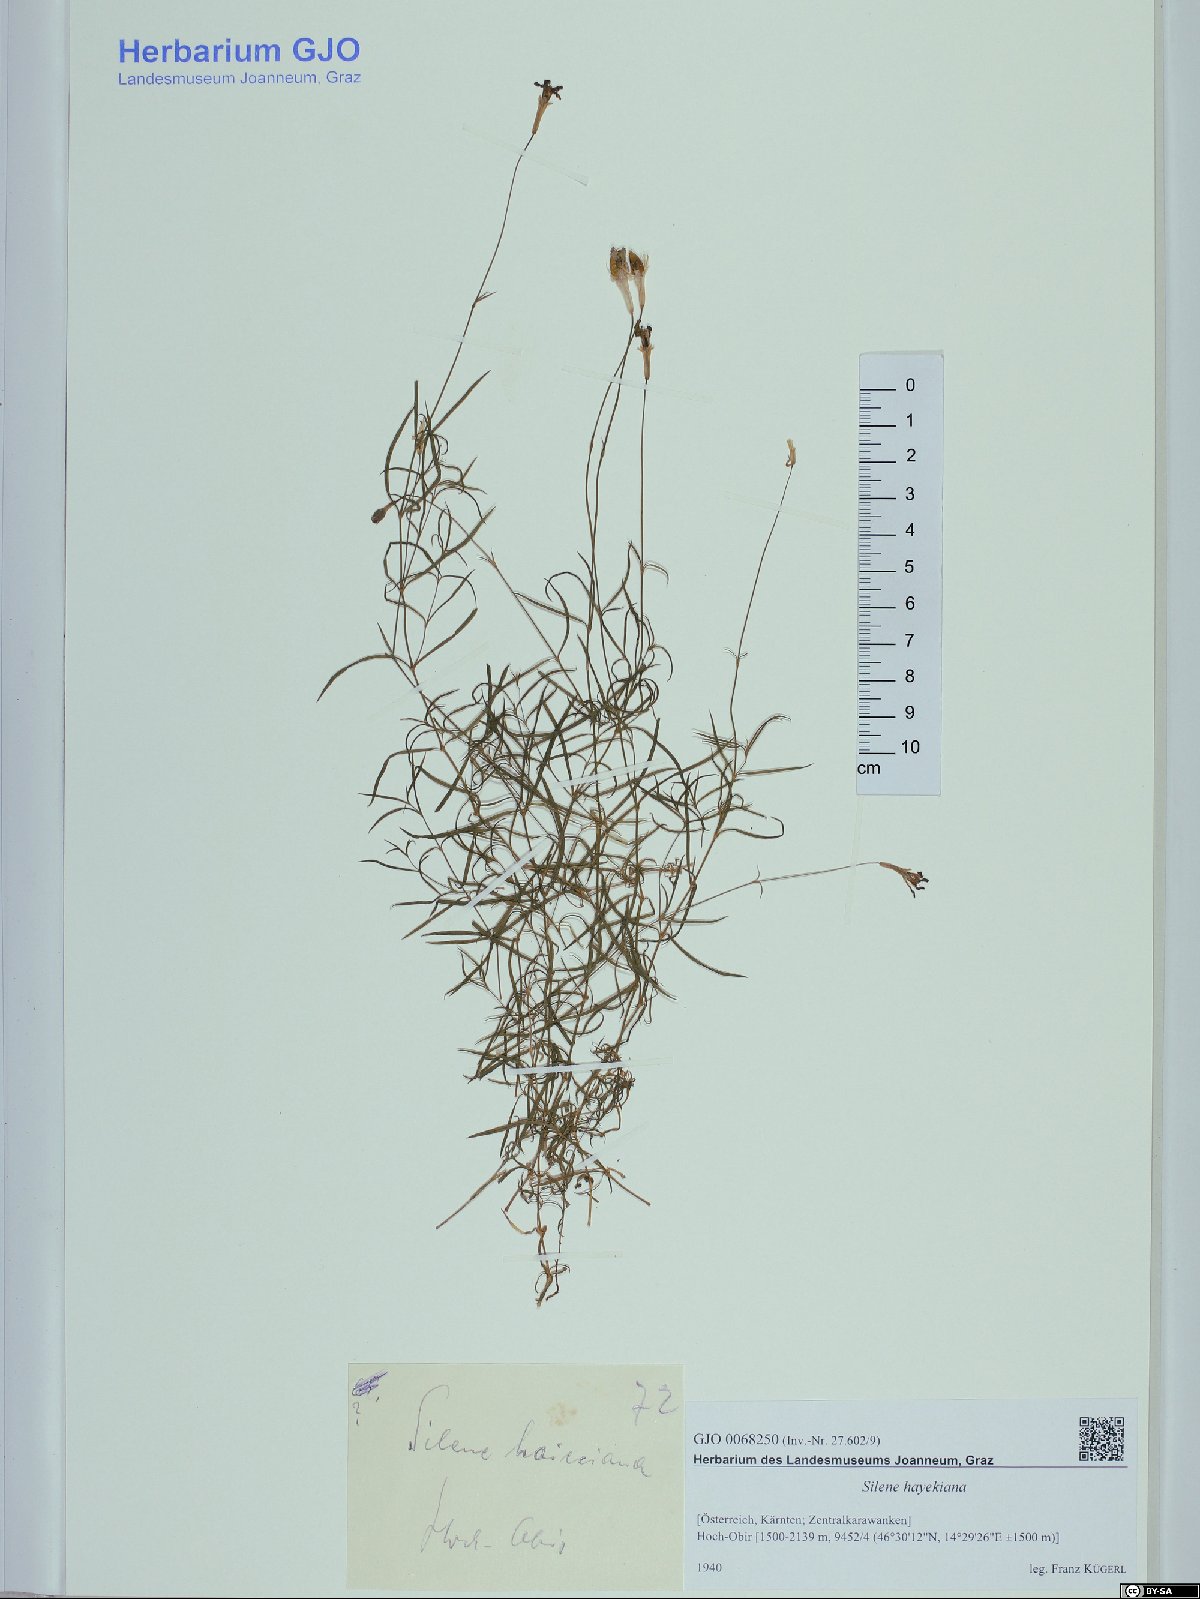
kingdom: Plantae
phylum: Tracheophyta
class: Magnoliopsida
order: Caryophyllales
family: Caryophyllaceae
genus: Silene
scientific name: Silene hayekiana
